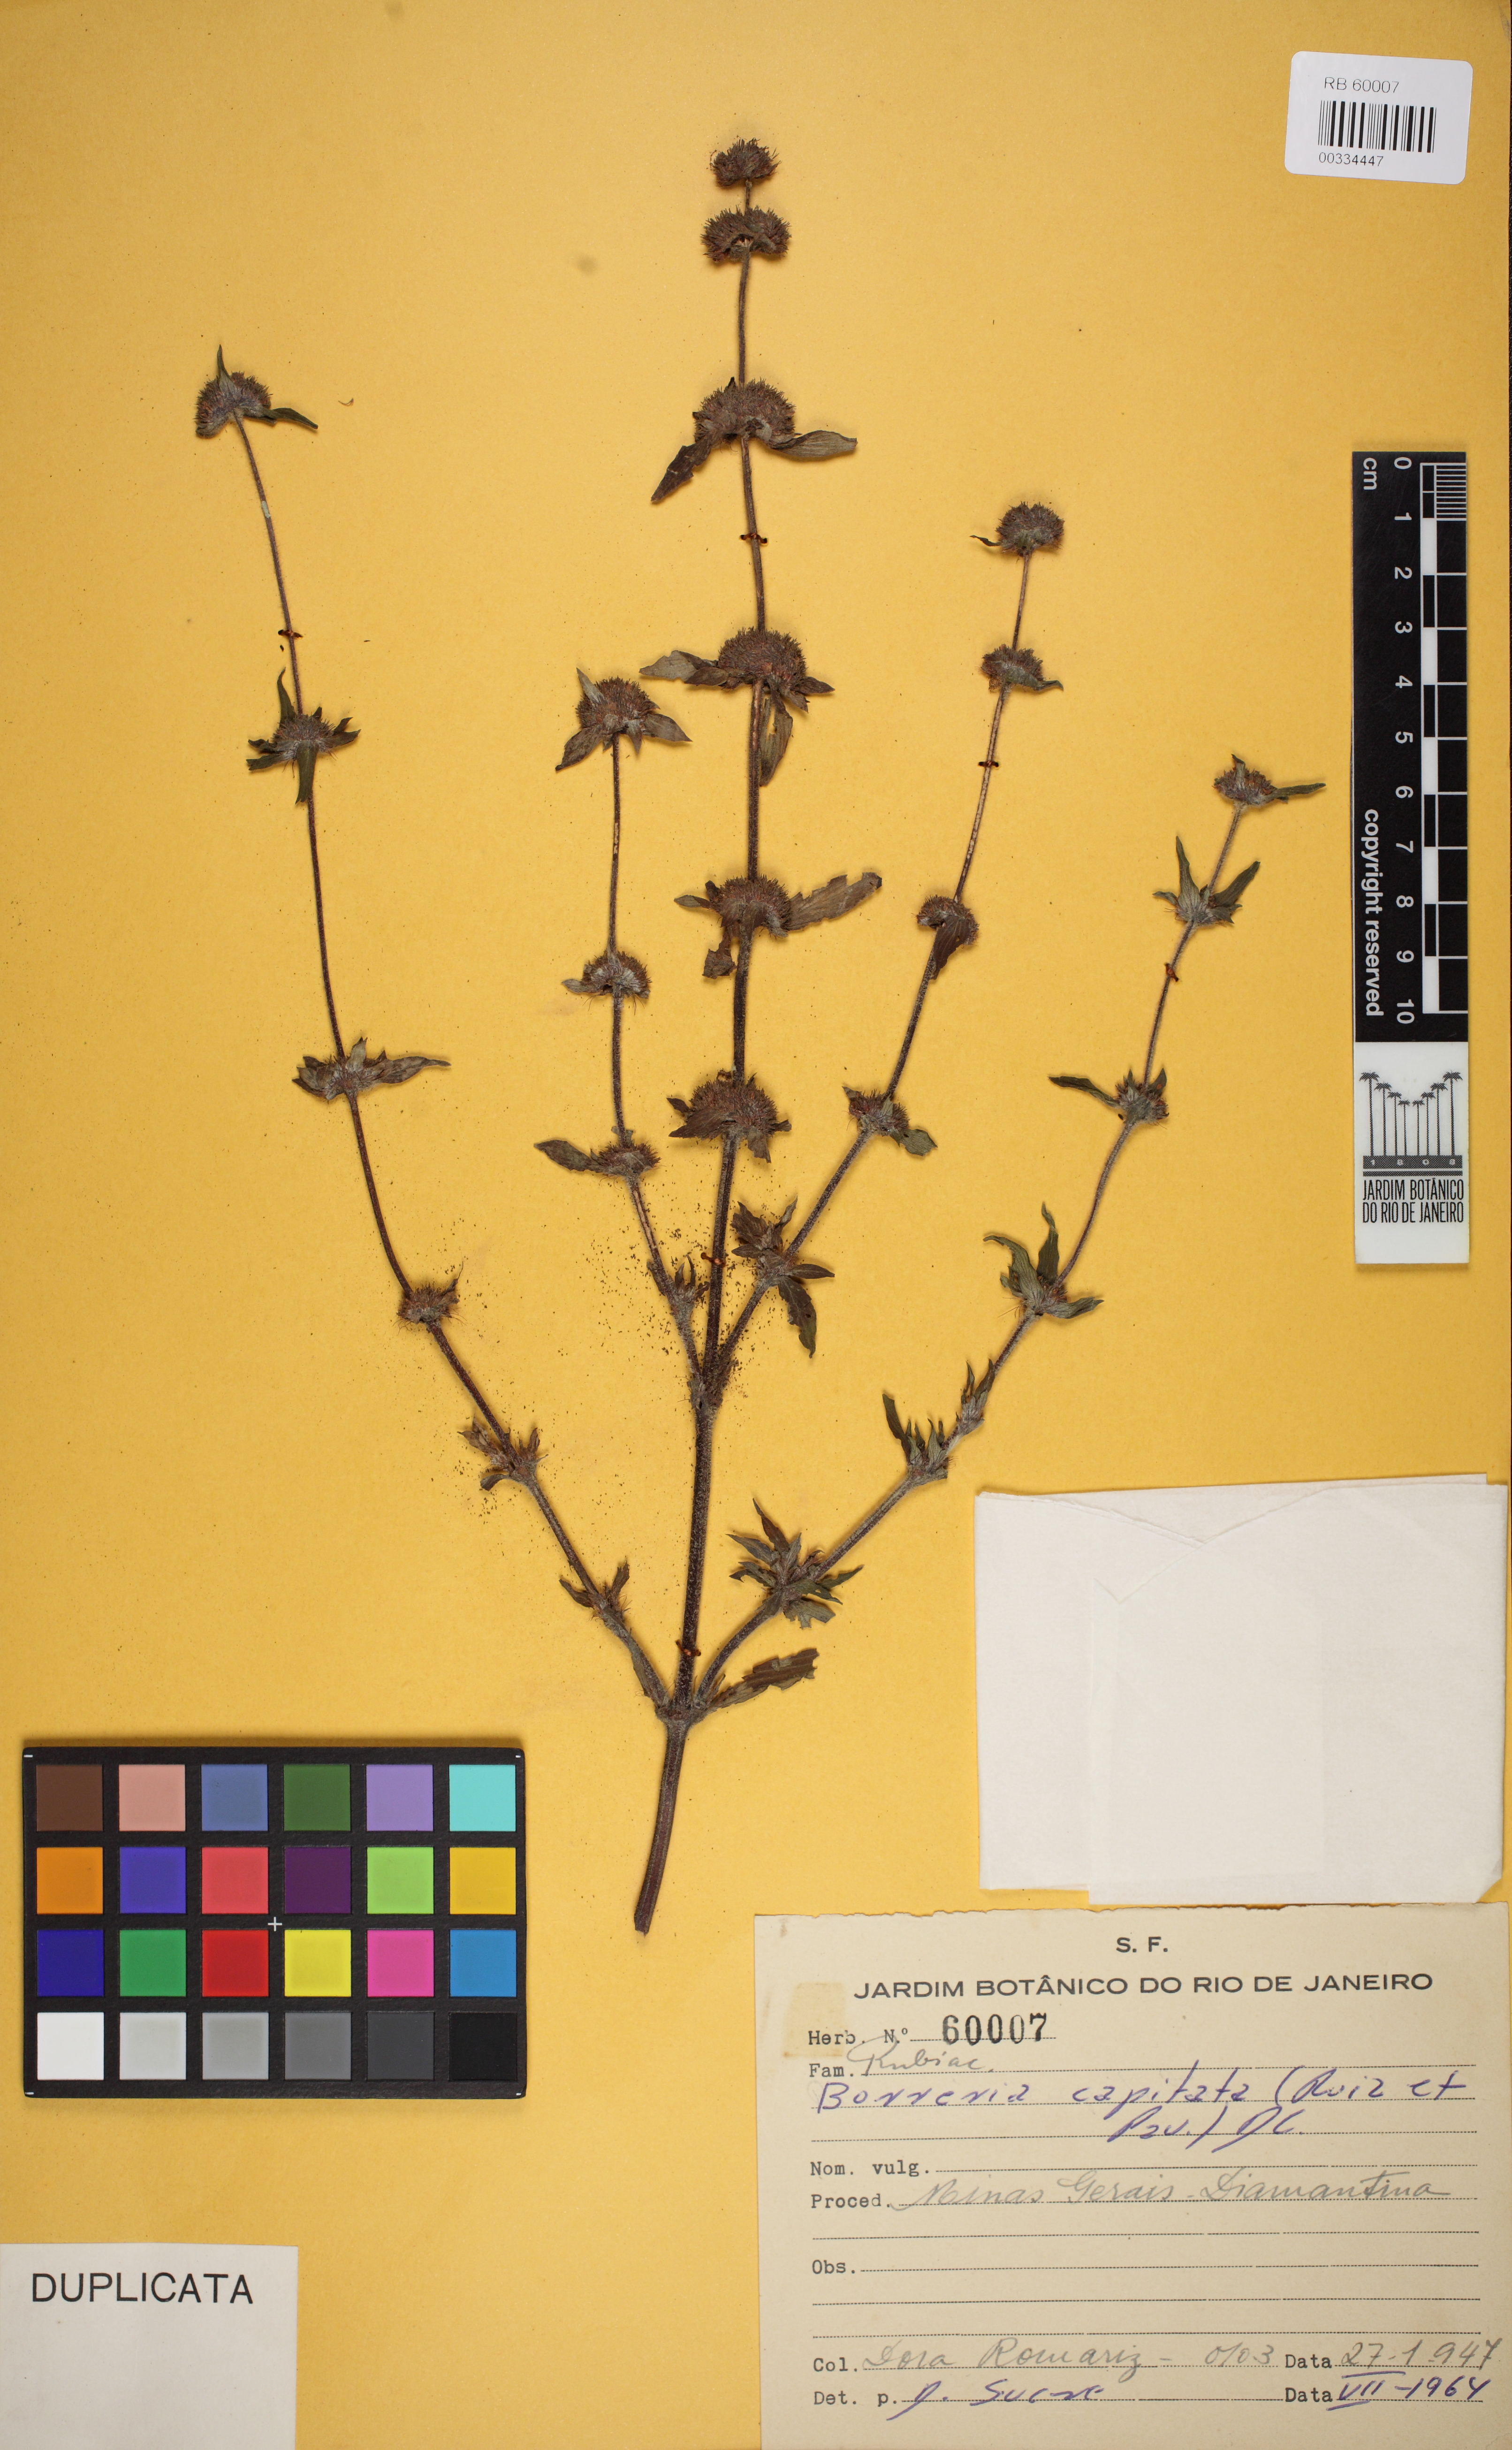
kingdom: Plantae
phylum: Tracheophyta
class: Magnoliopsida
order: Gentianales
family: Rubiaceae
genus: Spermacoce
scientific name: Spermacoce capitata
